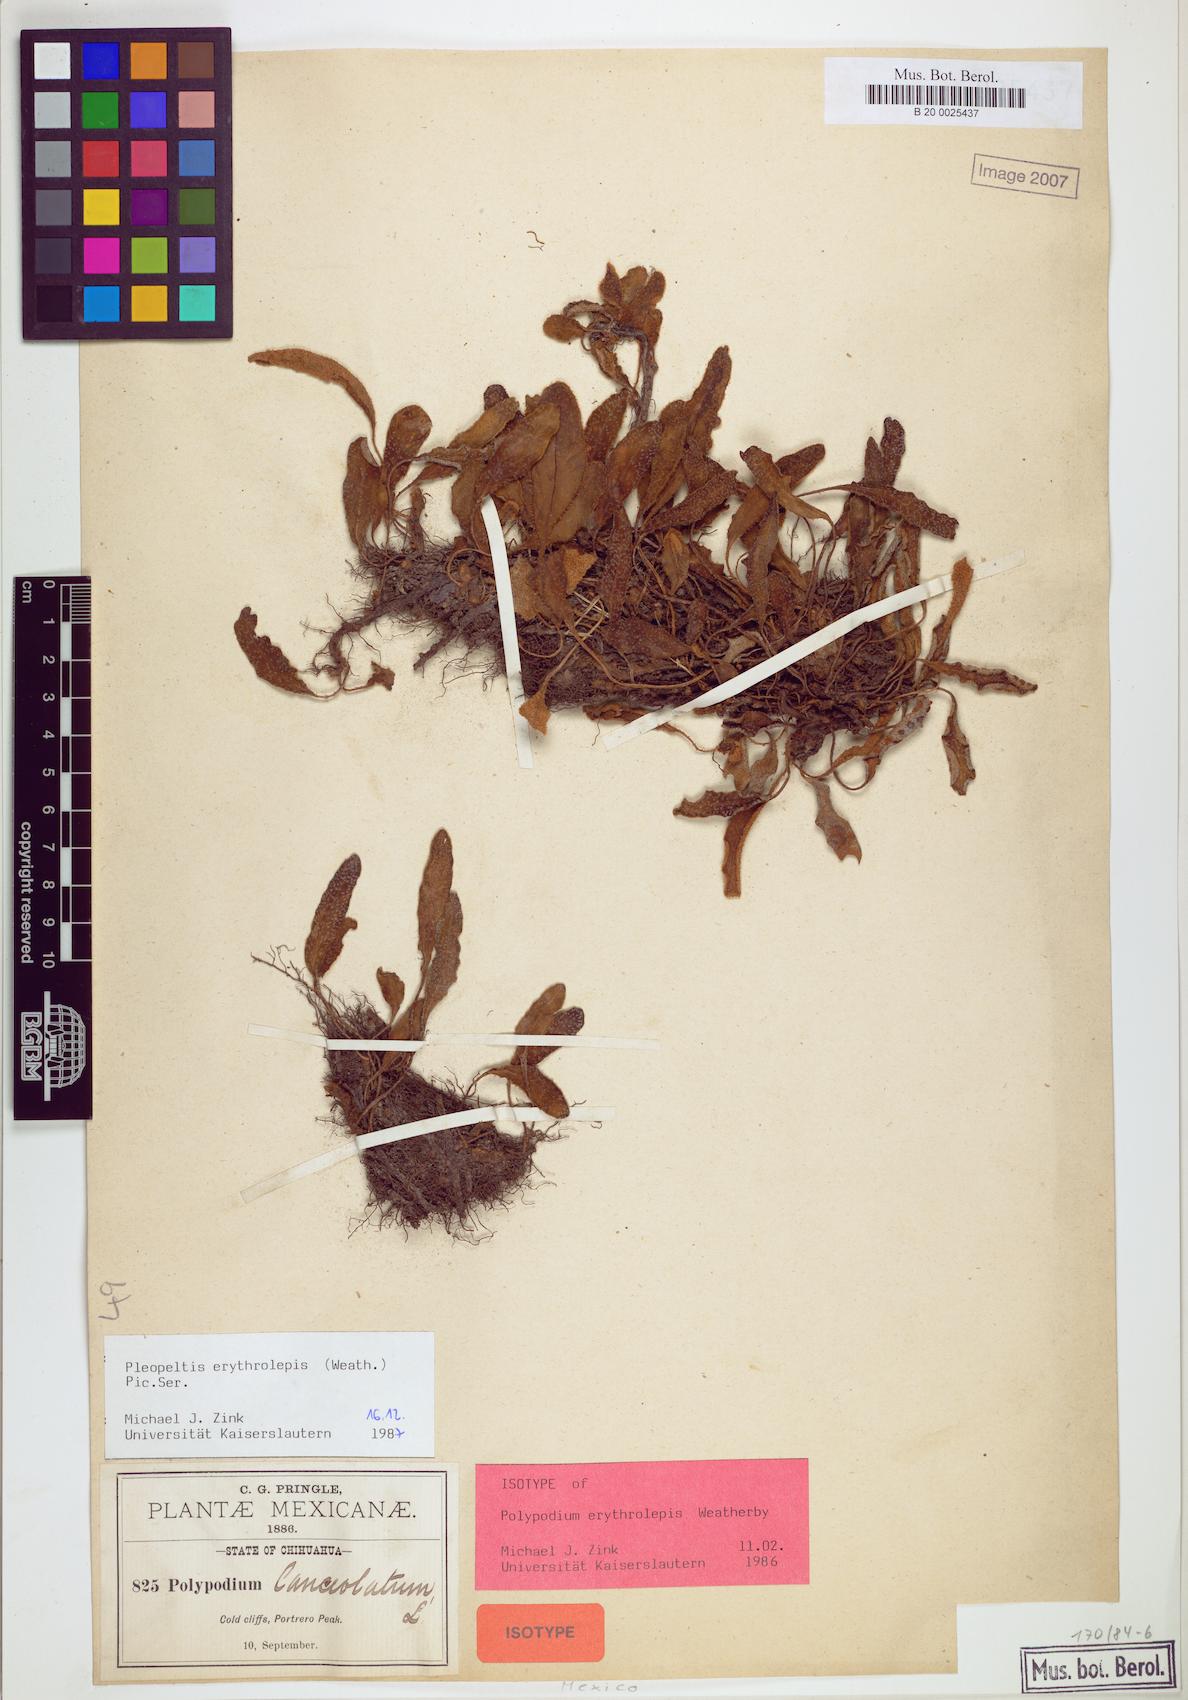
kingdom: Plantae
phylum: Tracheophyta
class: Polypodiopsida
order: Polypodiales
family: Polypodiaceae
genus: Pleopeltis
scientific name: Pleopeltis polylepis
